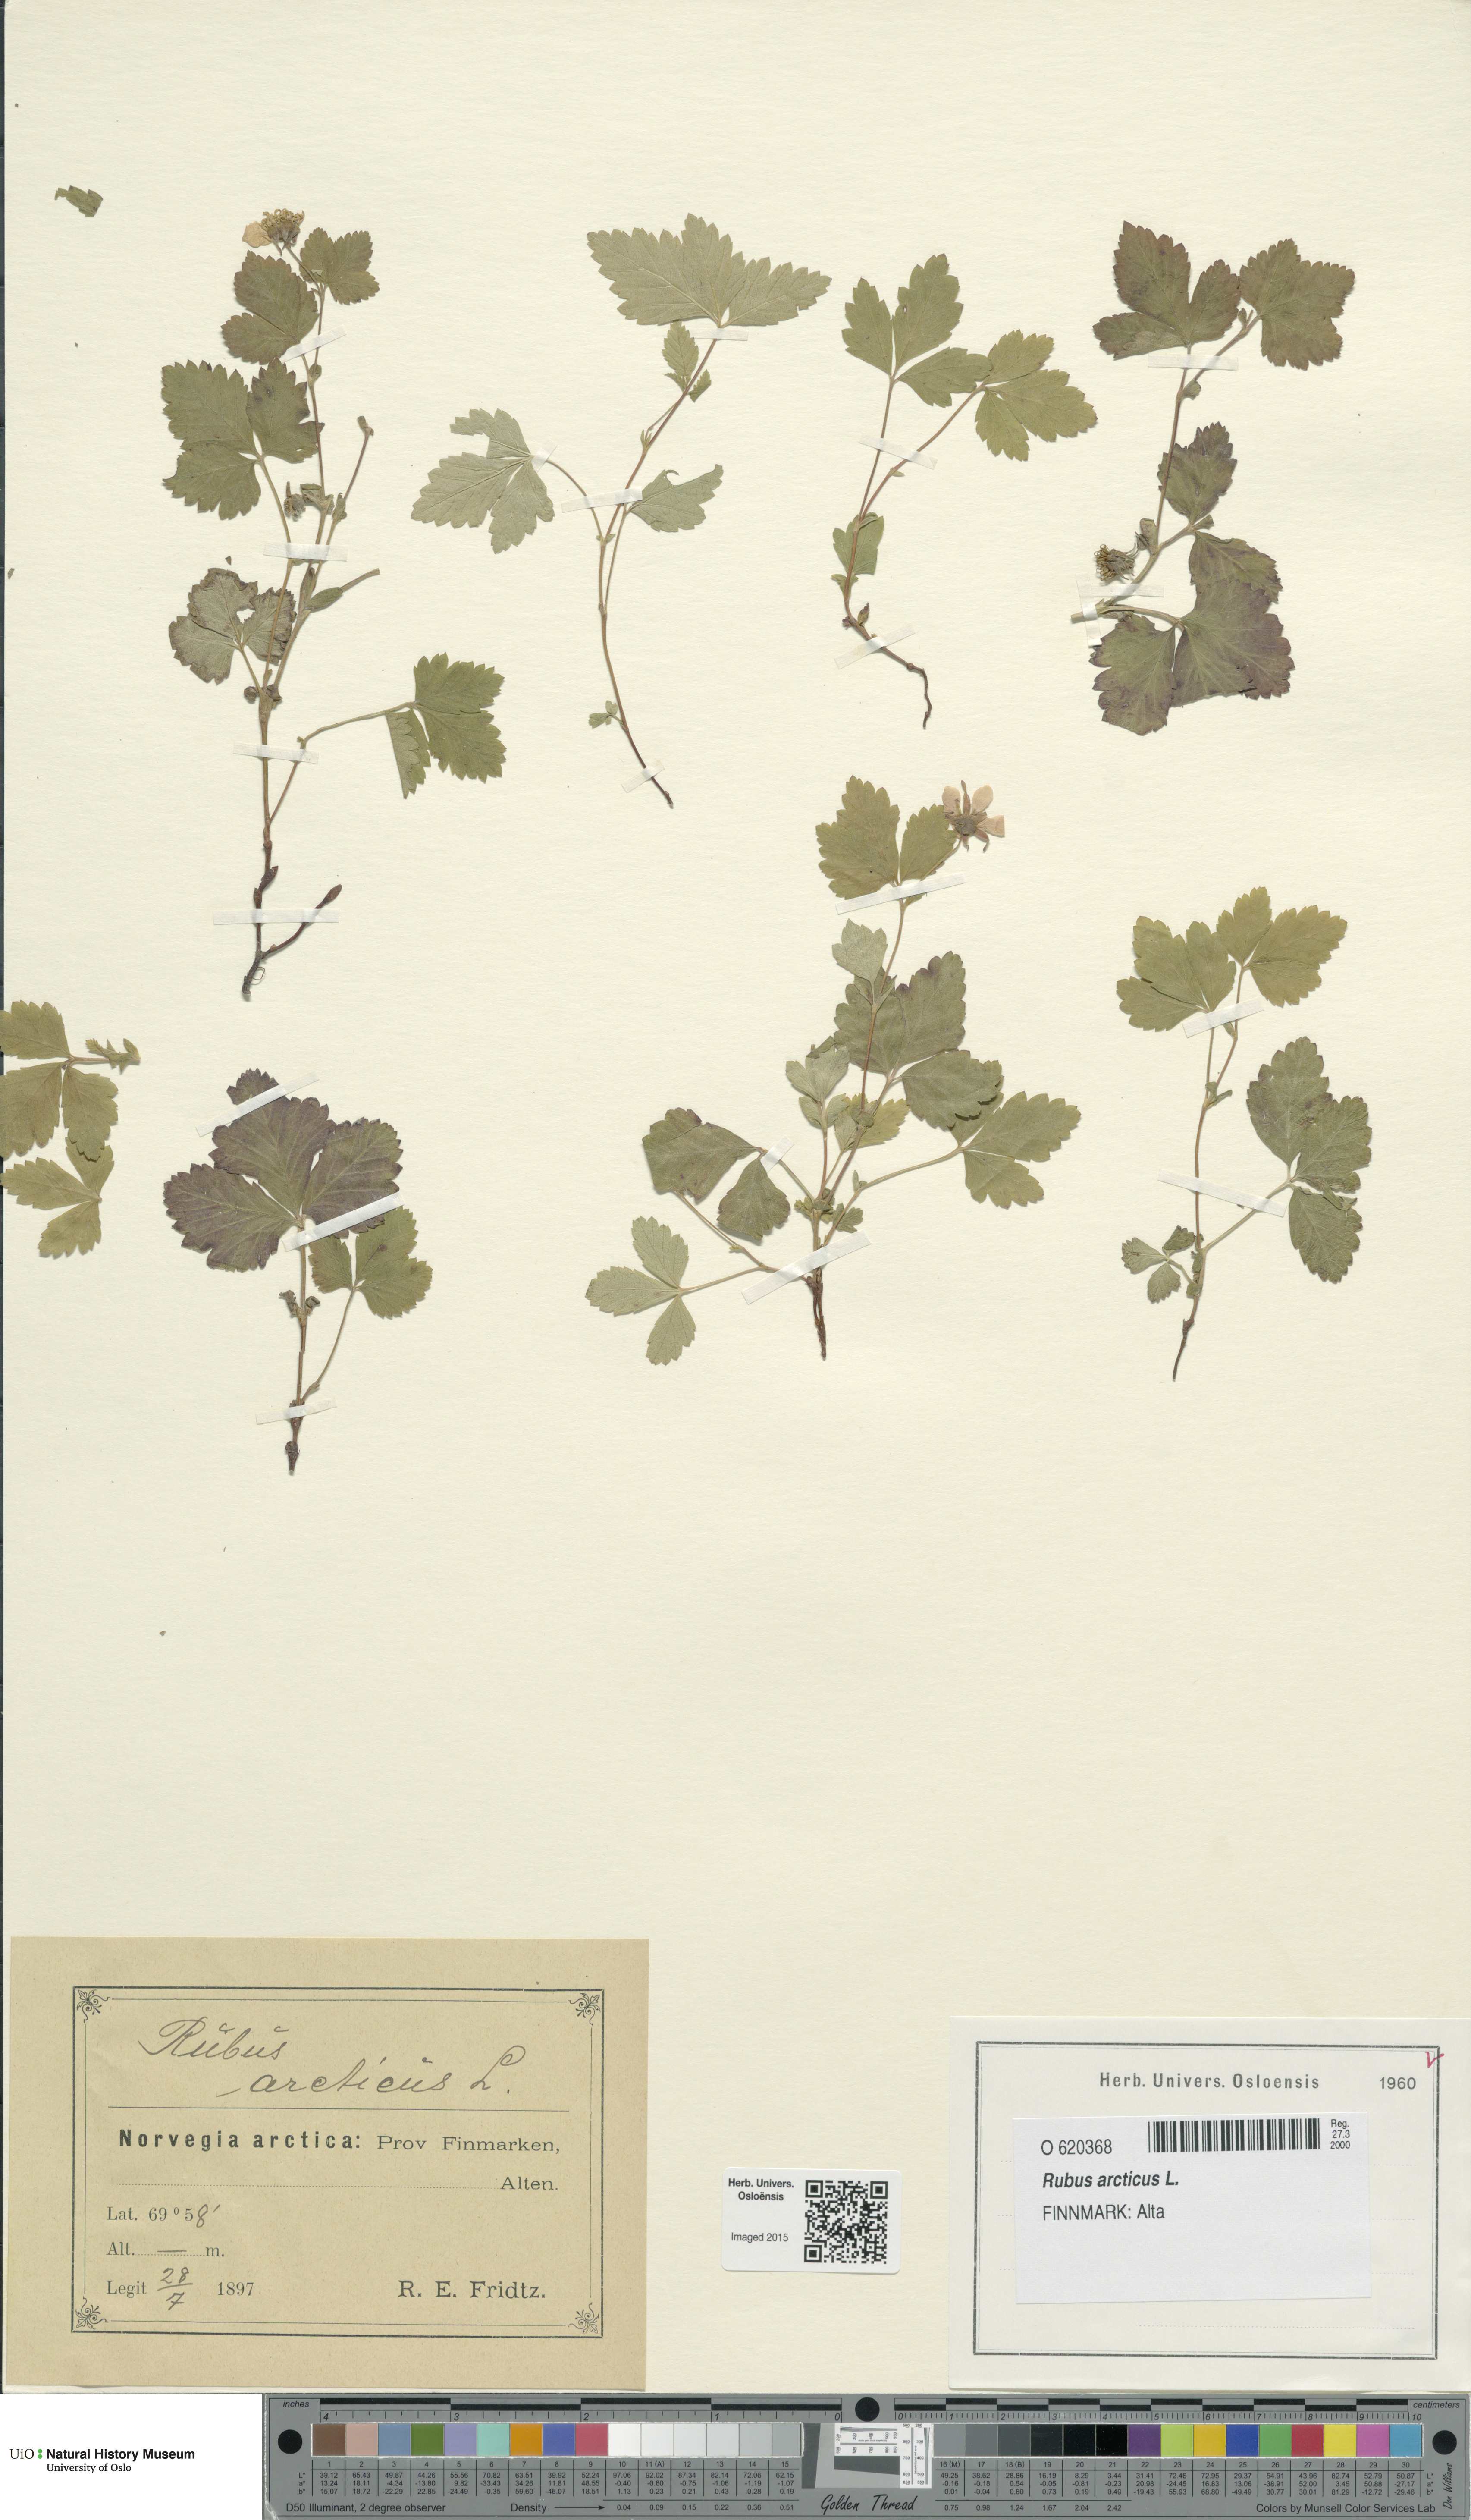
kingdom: Plantae
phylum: Tracheophyta
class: Magnoliopsida
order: Rosales
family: Rosaceae
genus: Rubus
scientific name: Rubus arcticus
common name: Arctic bramble
